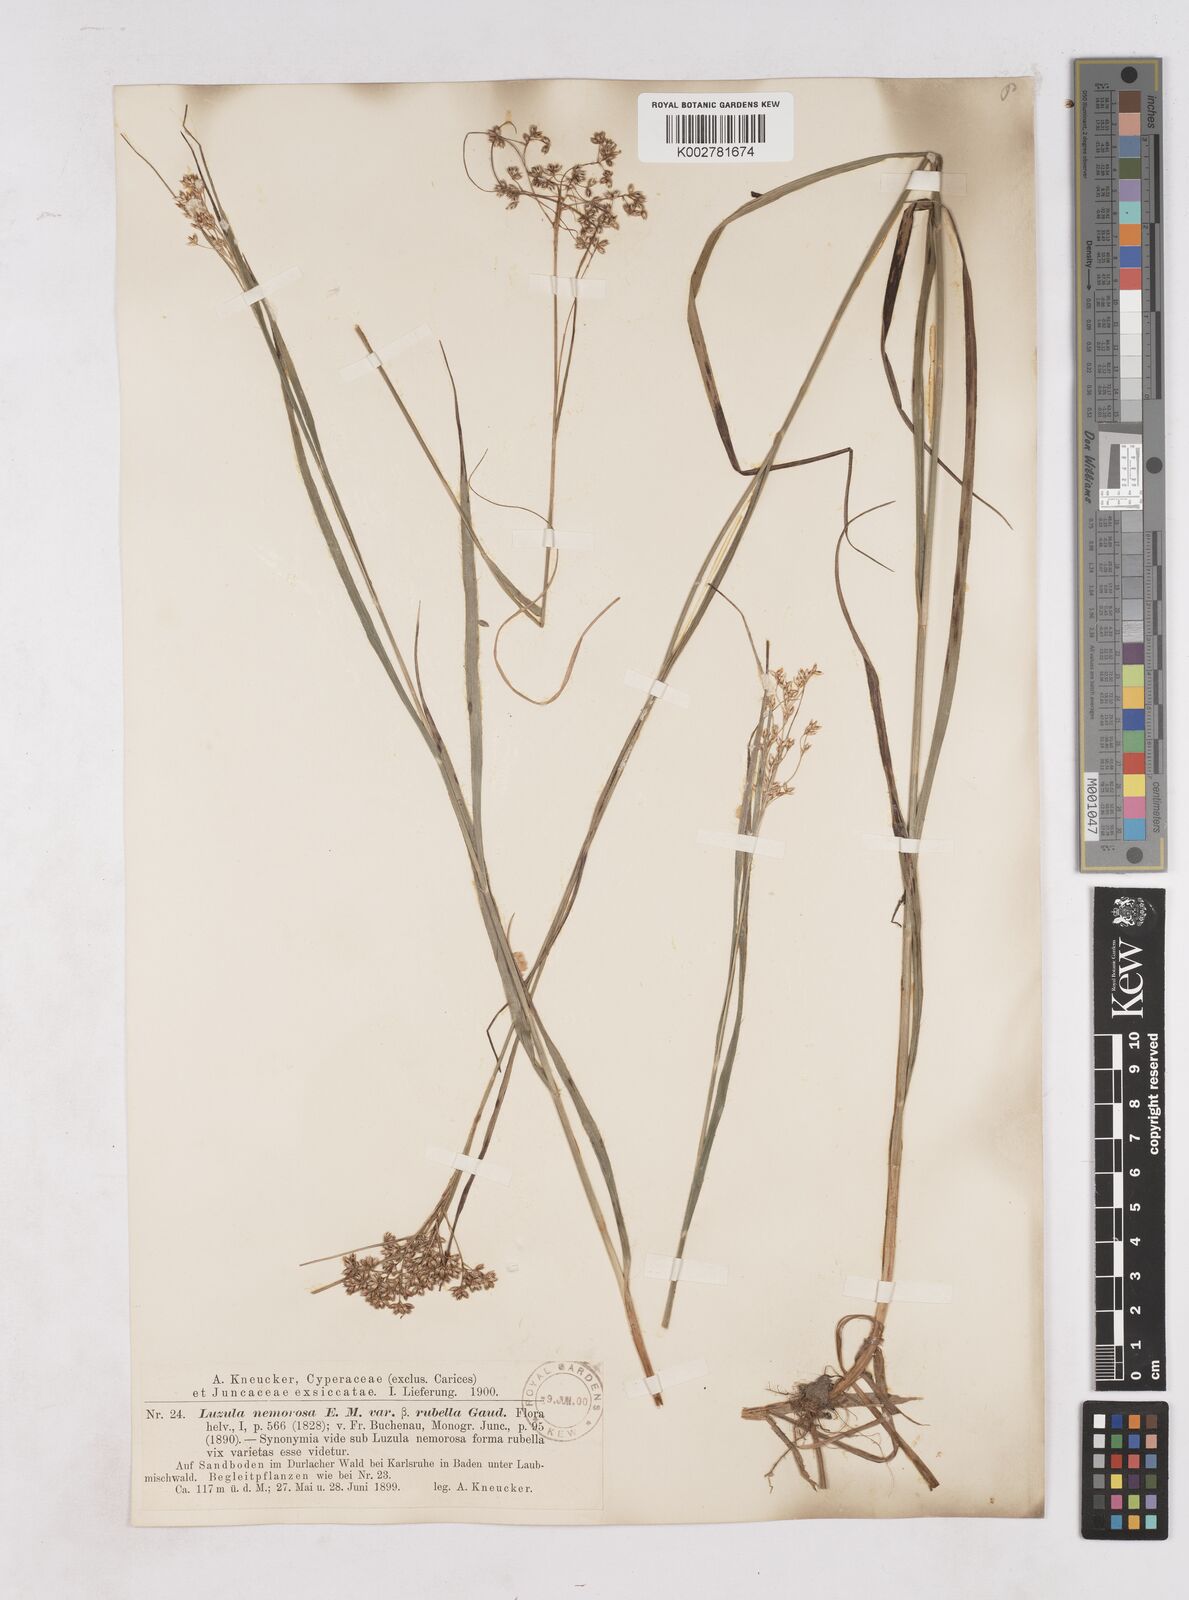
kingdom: Plantae
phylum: Tracheophyta
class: Liliopsida
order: Poales
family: Juncaceae
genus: Luzula
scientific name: Luzula luzuloides
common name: White wood-rush
